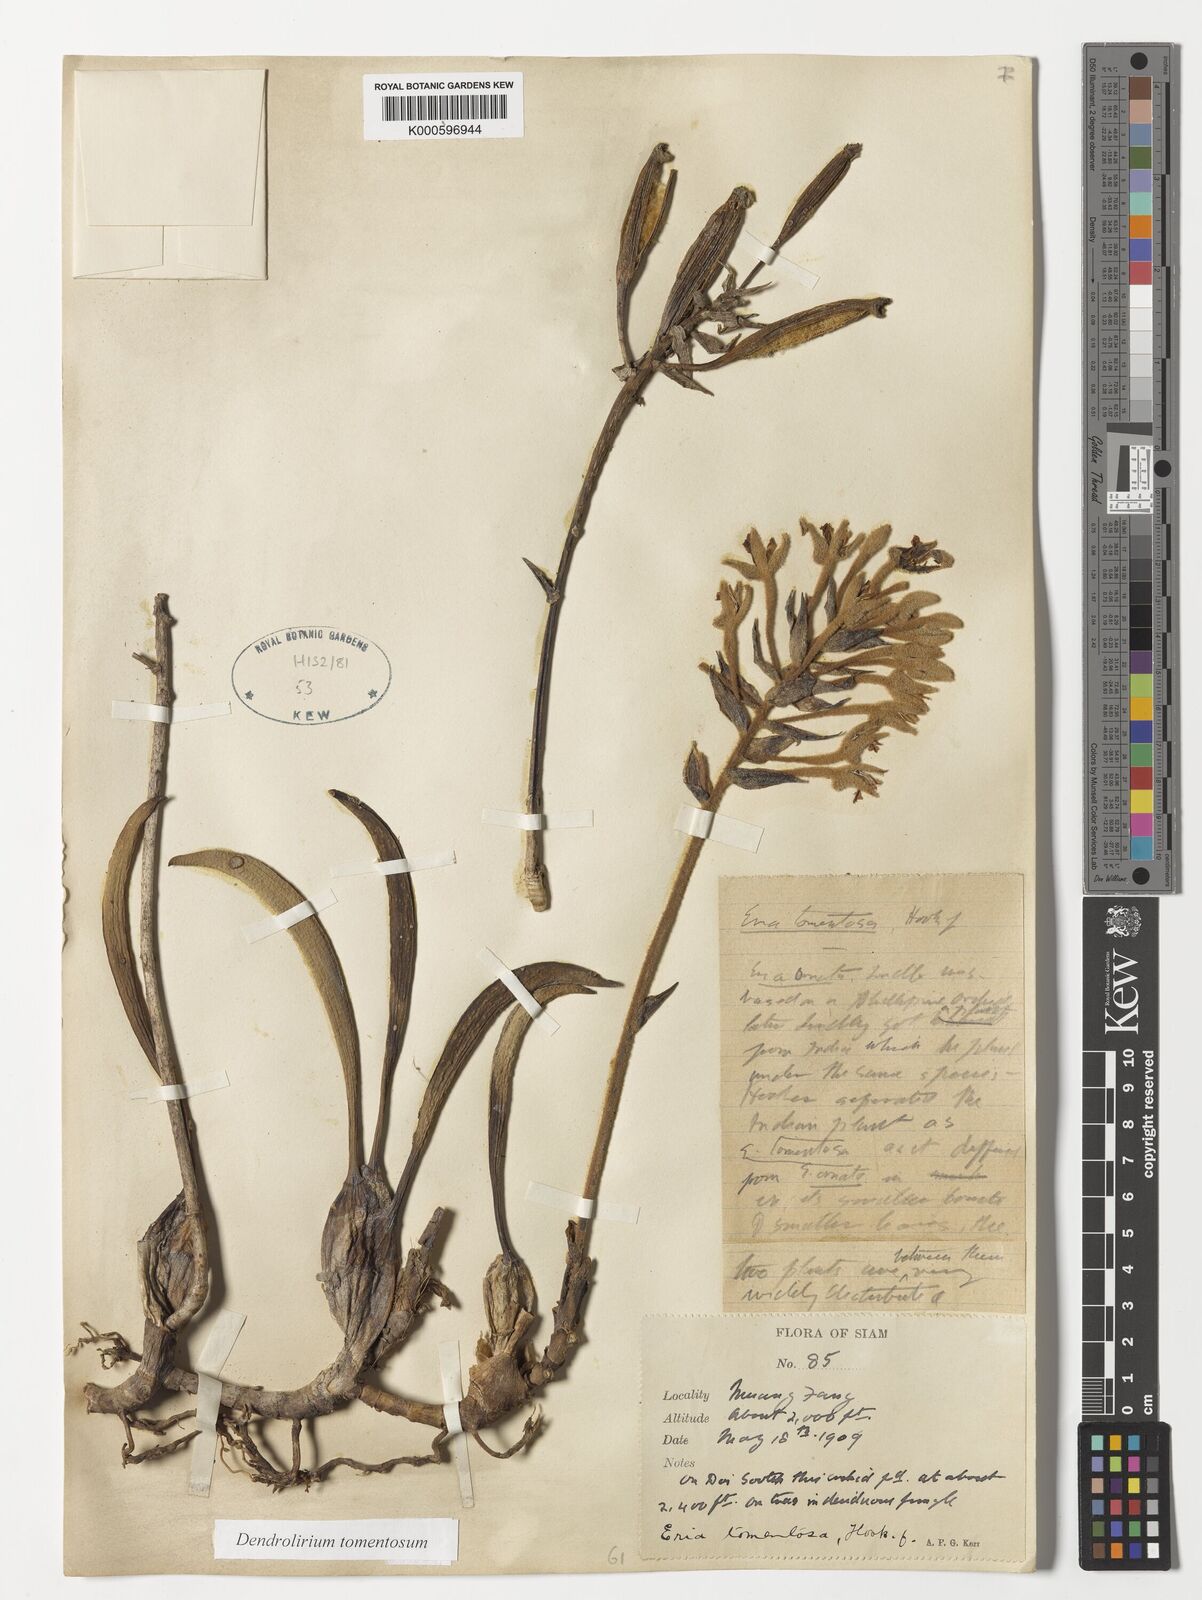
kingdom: Plantae
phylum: Tracheophyta
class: Liliopsida
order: Asparagales
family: Orchidaceae
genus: Dendrolirium
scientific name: Dendrolirium tomentosum
